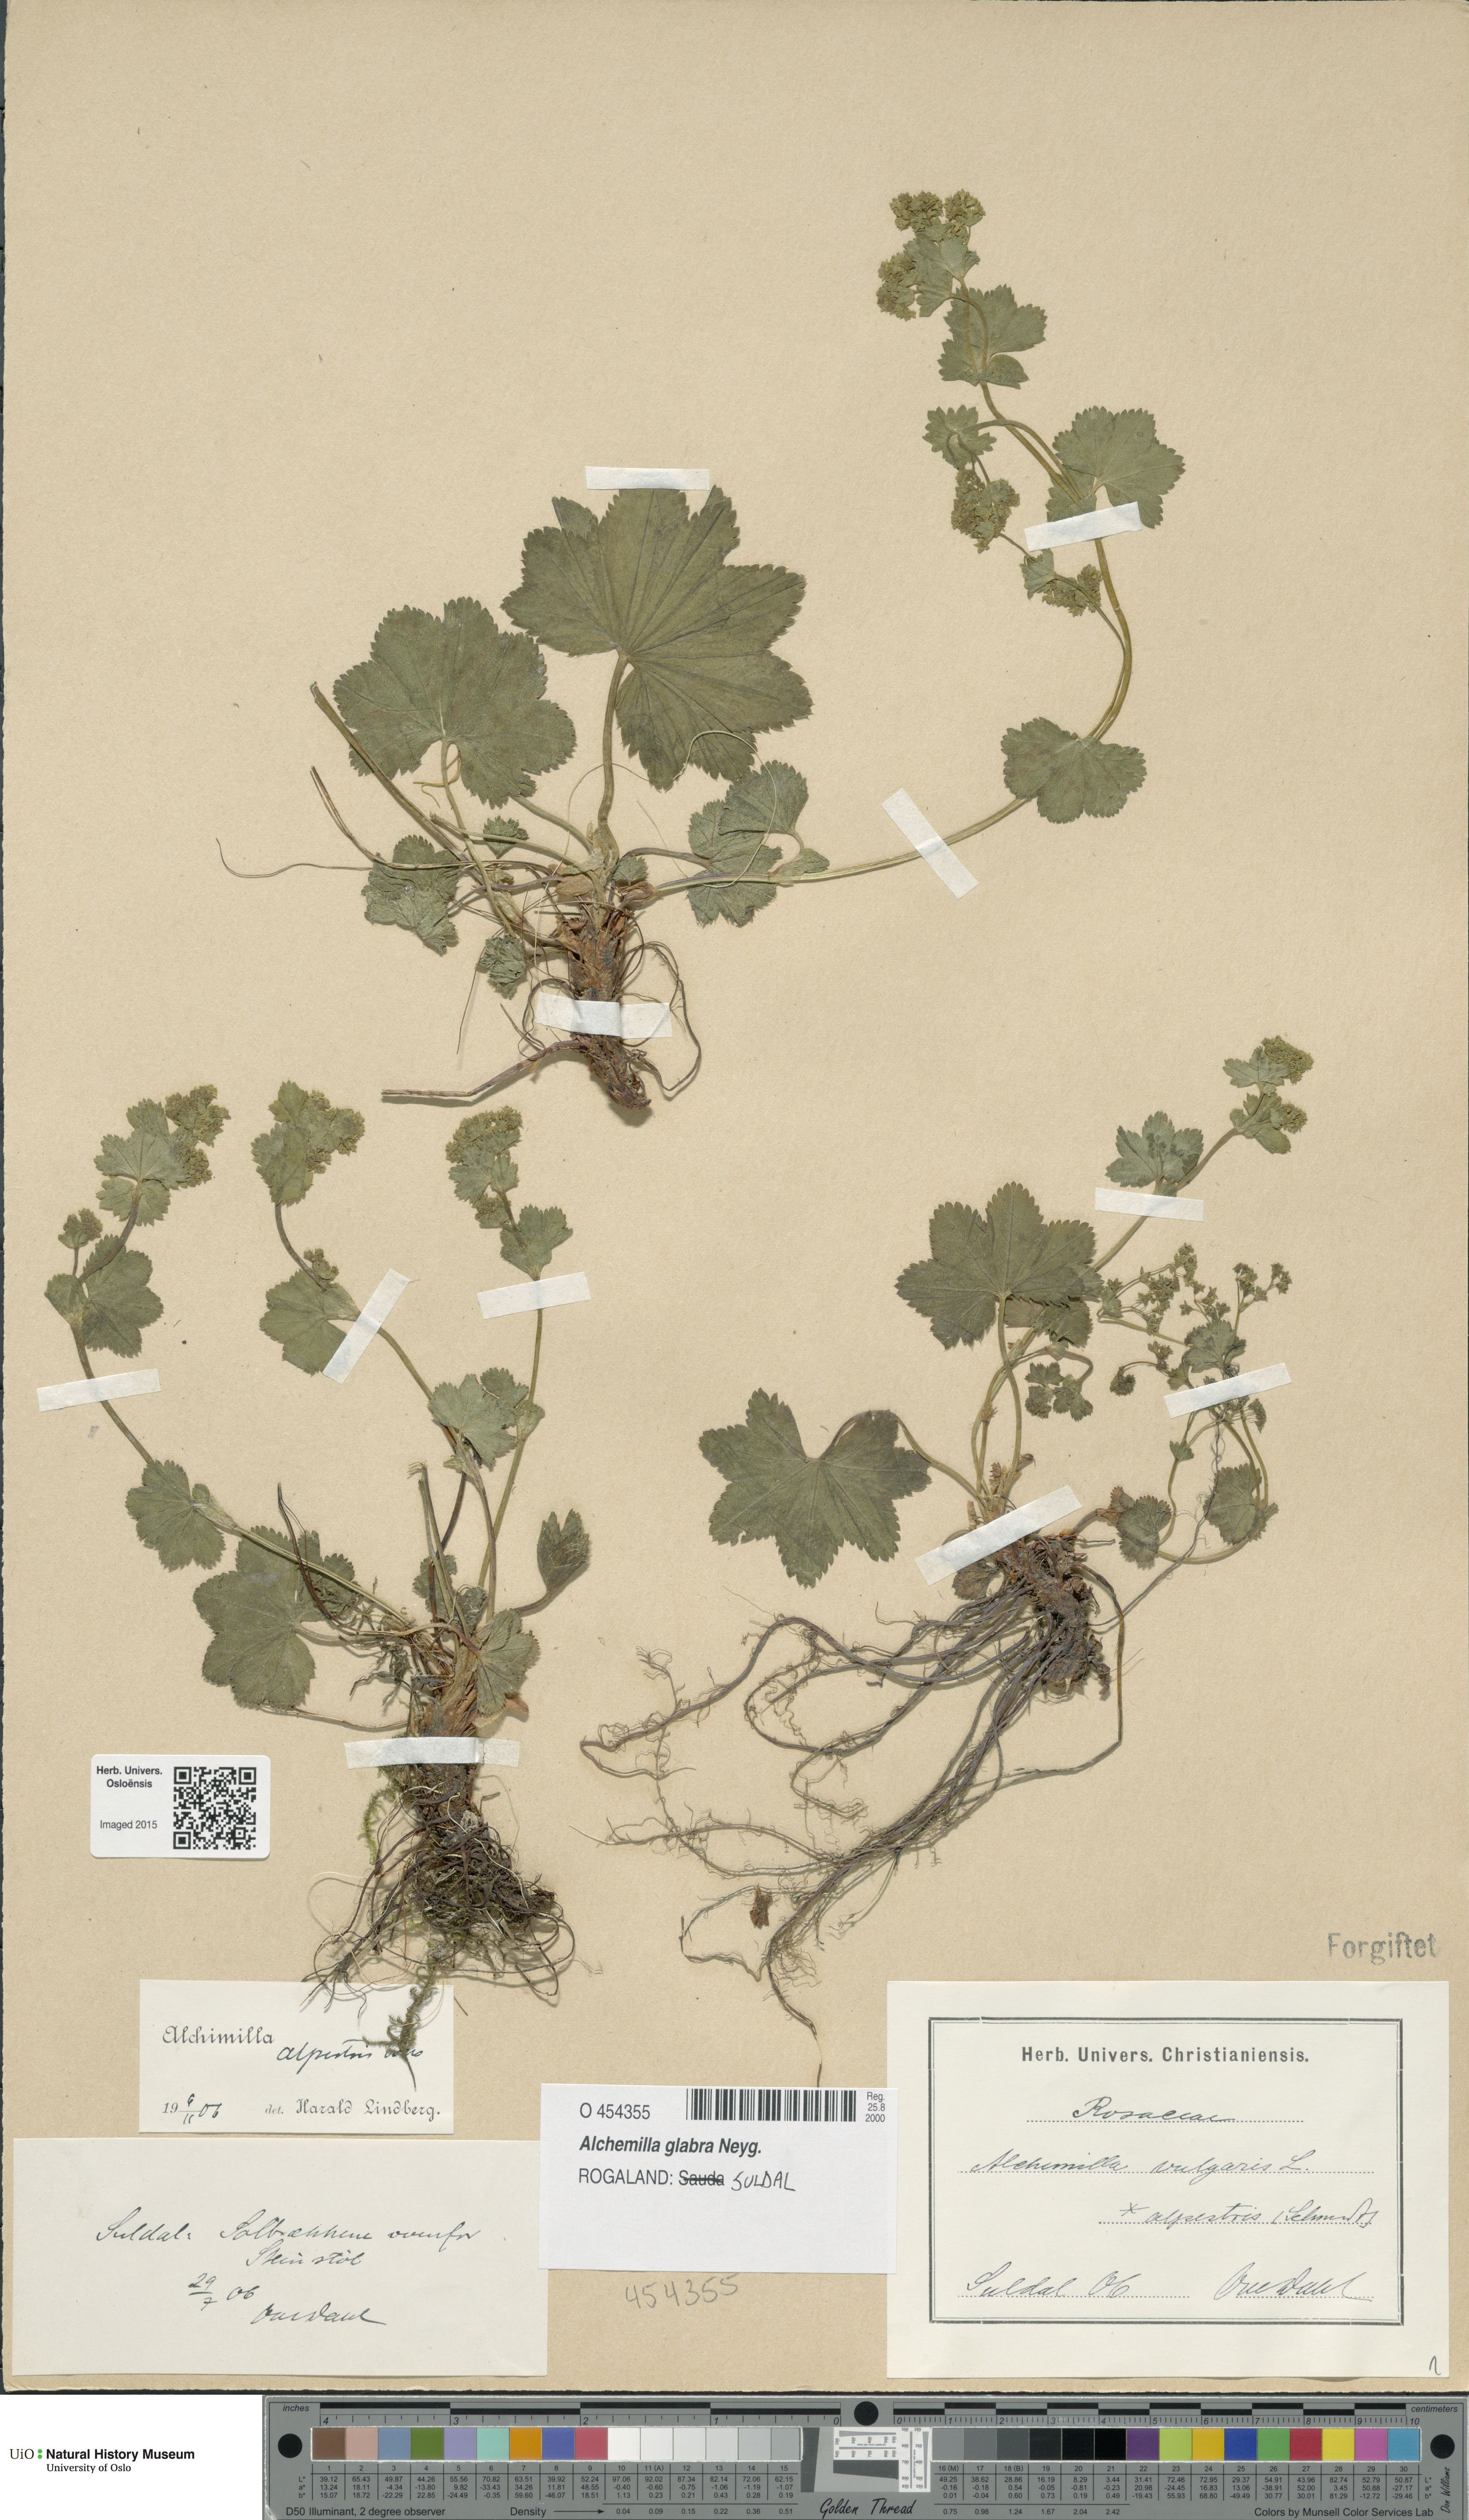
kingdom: Plantae
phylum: Tracheophyta
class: Magnoliopsida
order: Rosales
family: Rosaceae
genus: Alchemilla
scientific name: Alchemilla glabra
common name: Smooth lady's-mantle
